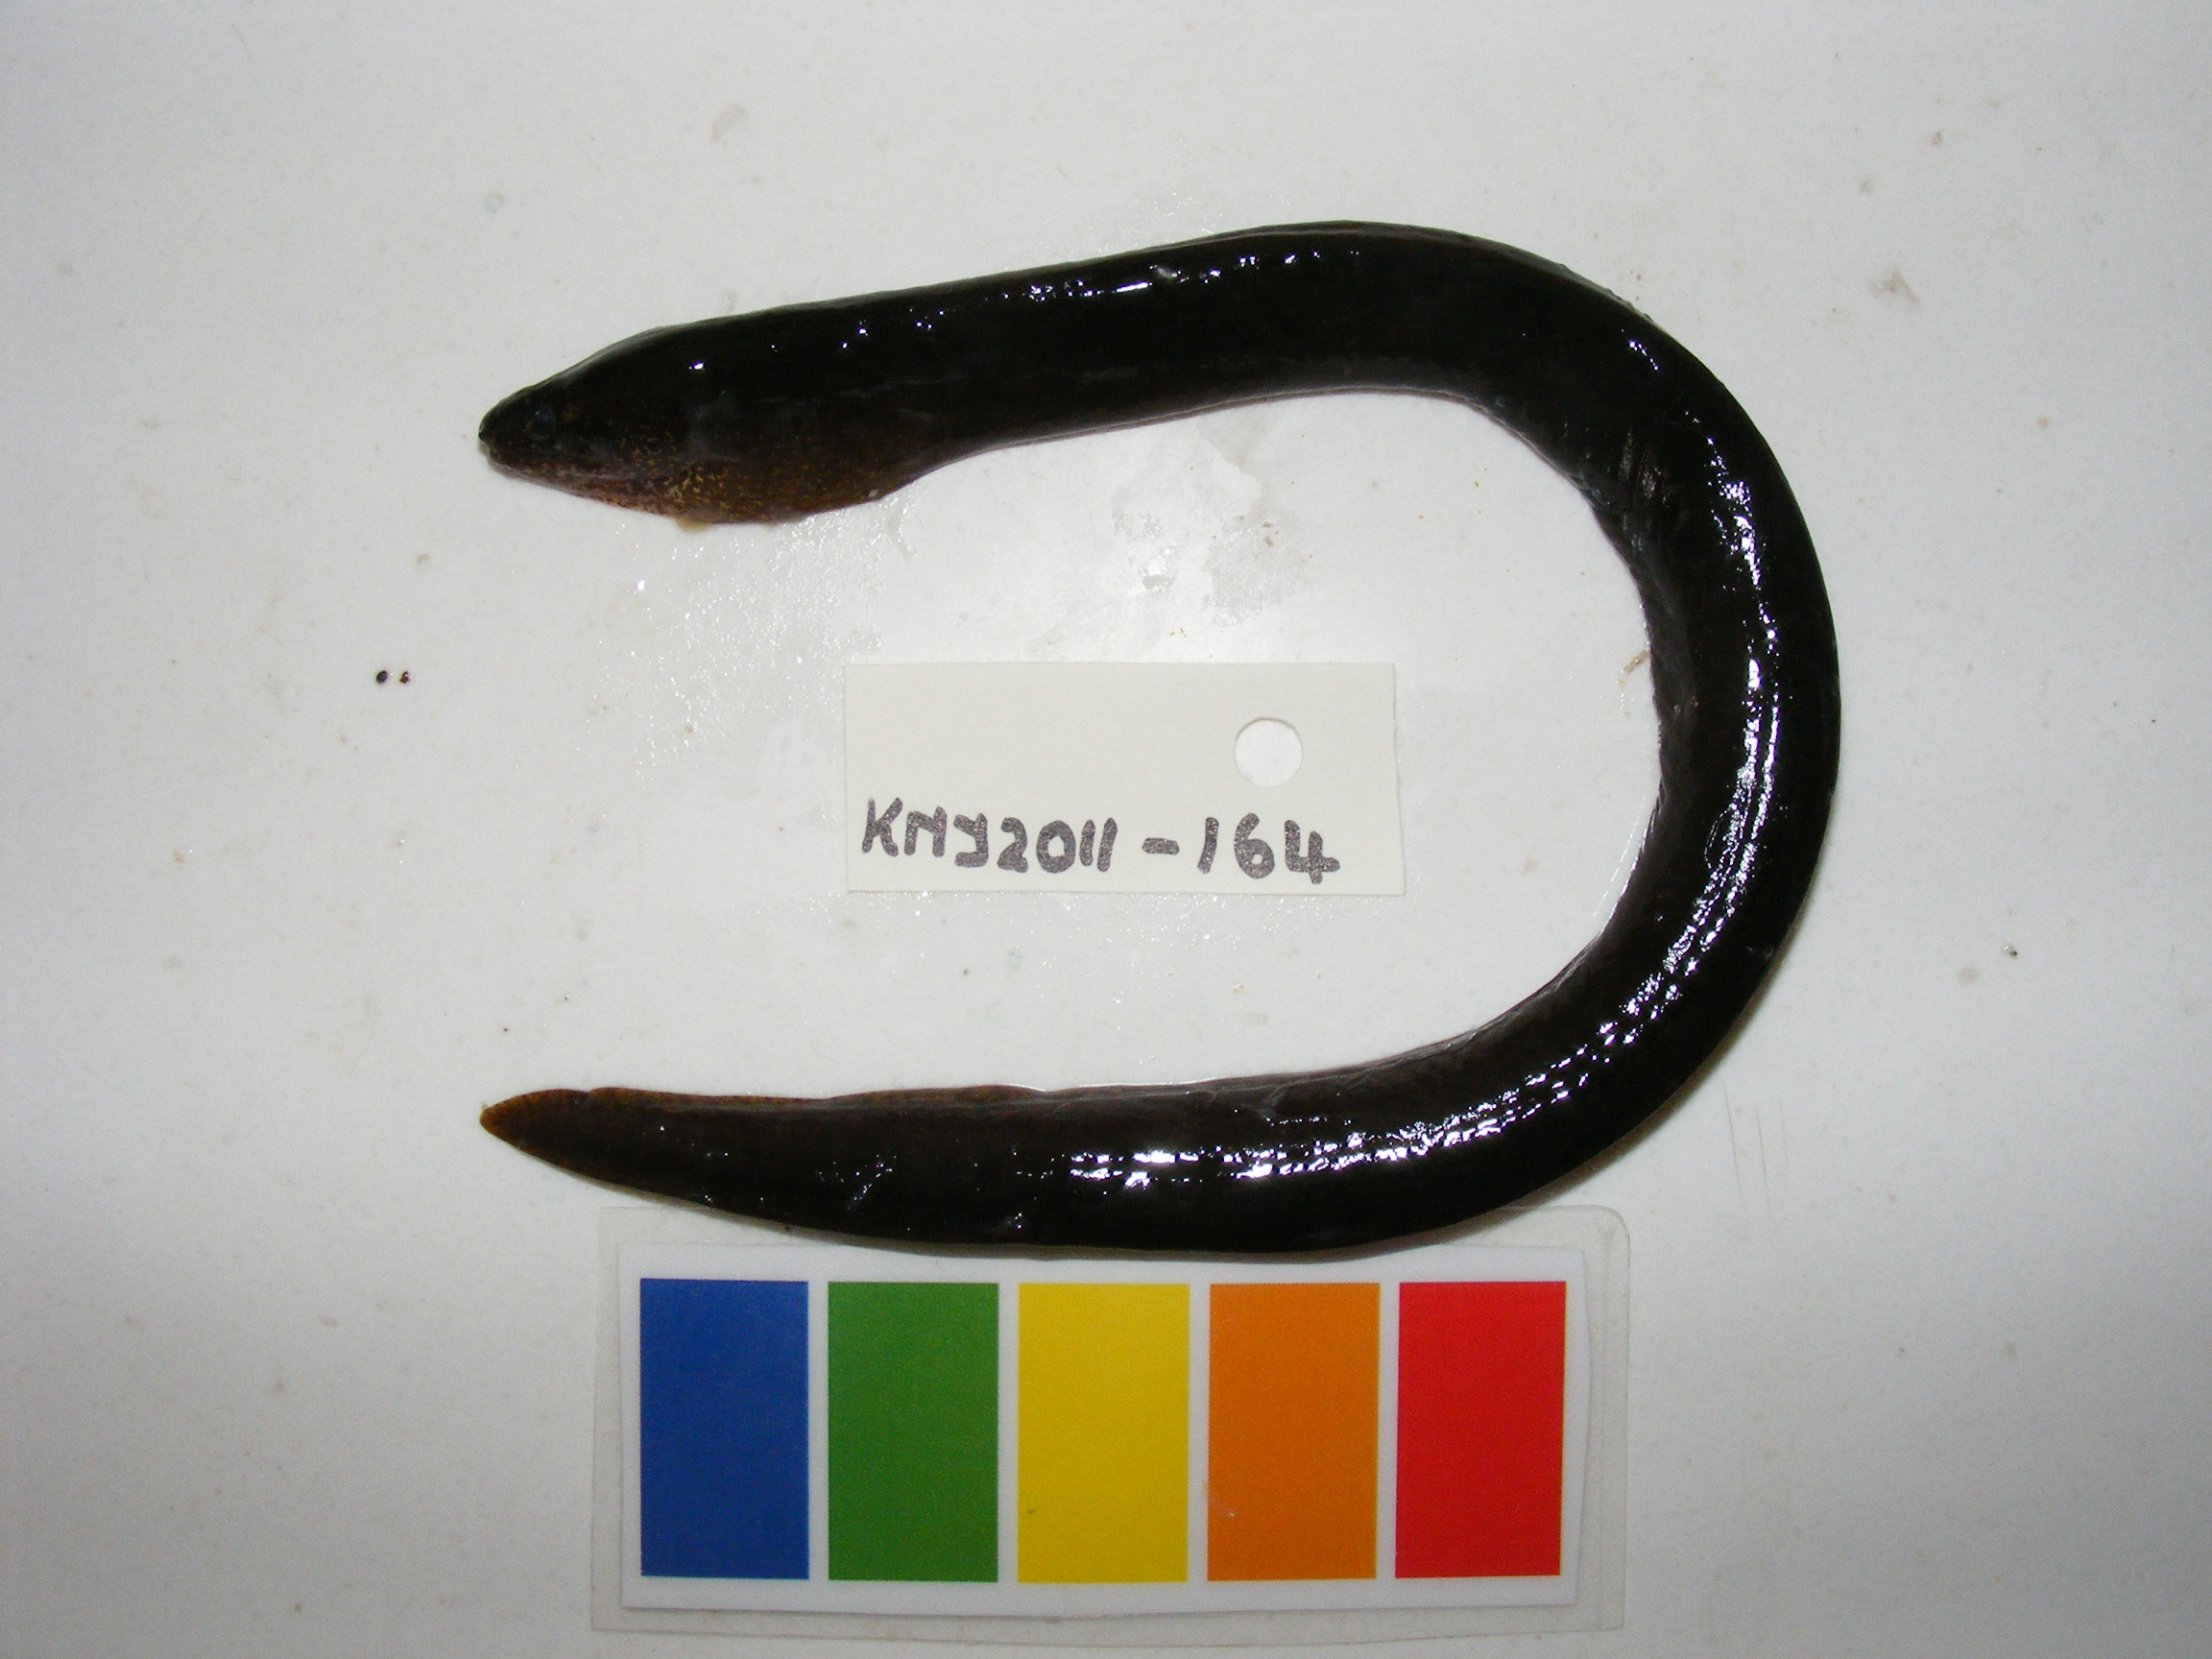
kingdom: Animalia
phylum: Chordata
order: Anguilliformes
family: Muraenidae
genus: Gymnothorax
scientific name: Gymnothorax richardsonii
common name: Richardson's moray
